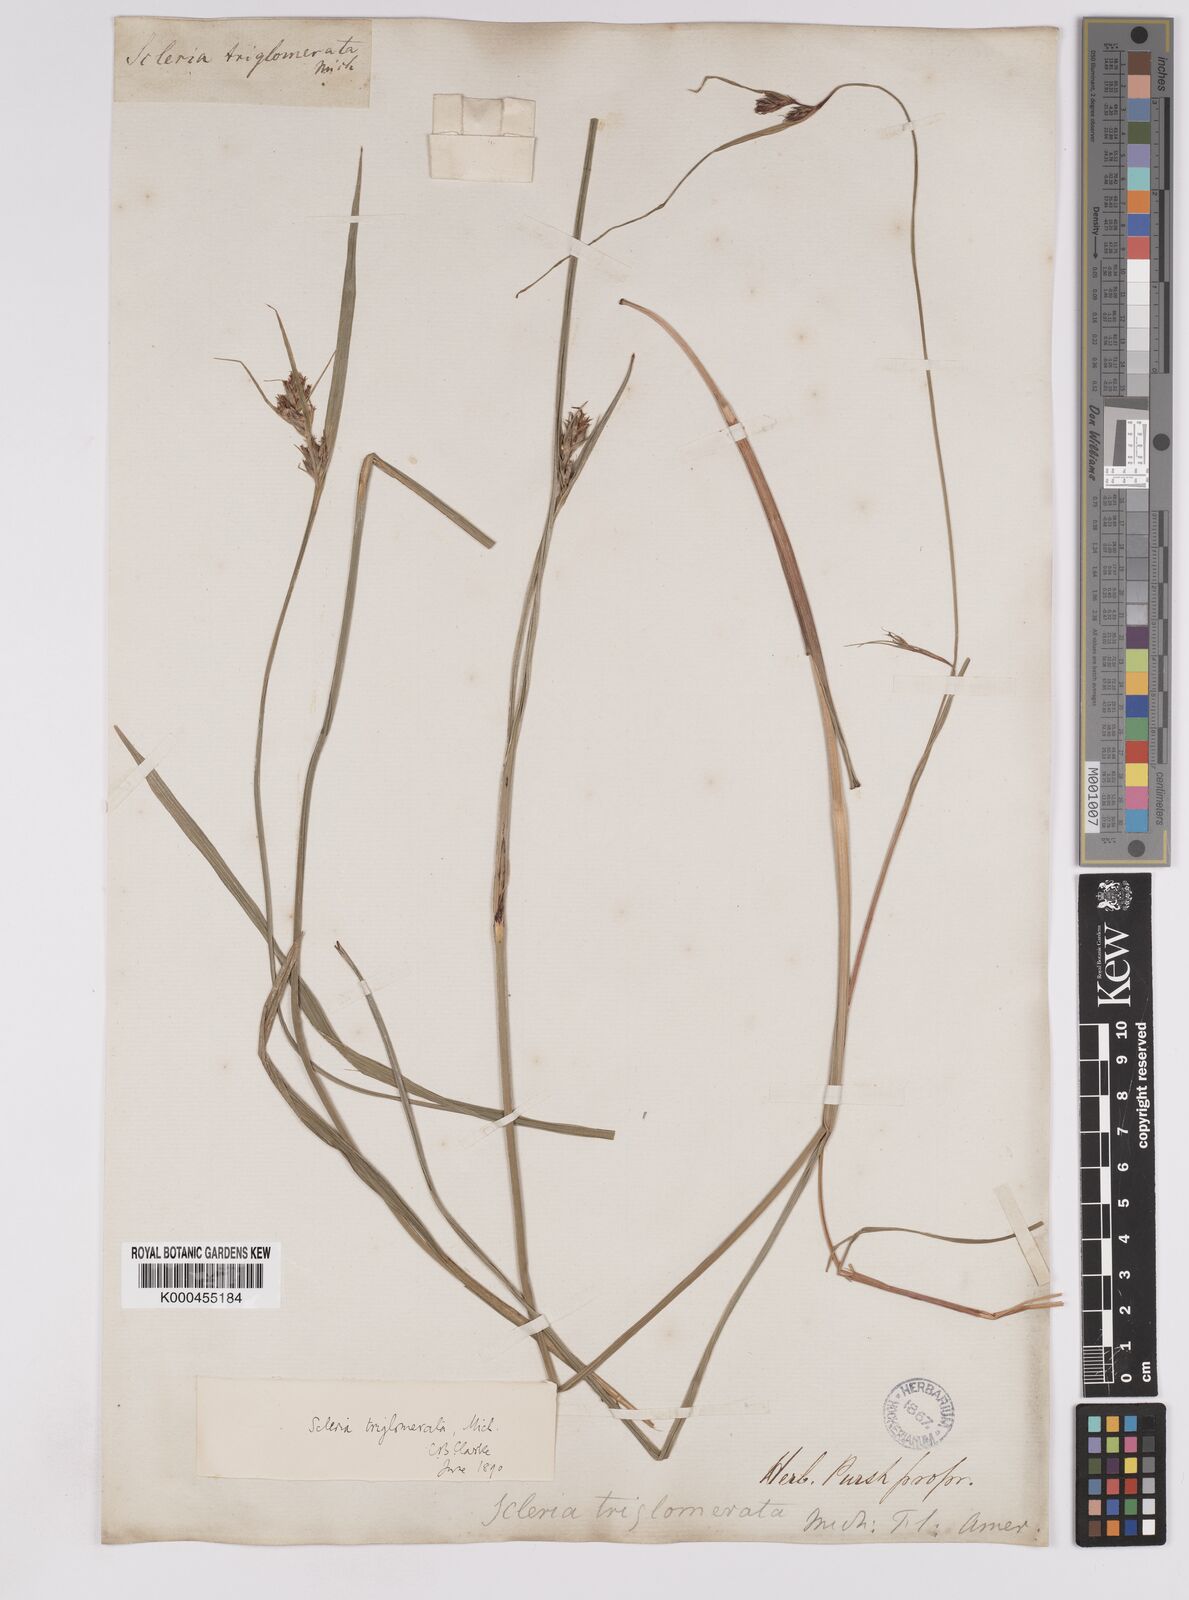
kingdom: Plantae
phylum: Tracheophyta
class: Liliopsida
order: Poales
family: Cyperaceae
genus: Scleria
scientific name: Scleria triglomerata
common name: Whip nutrush
